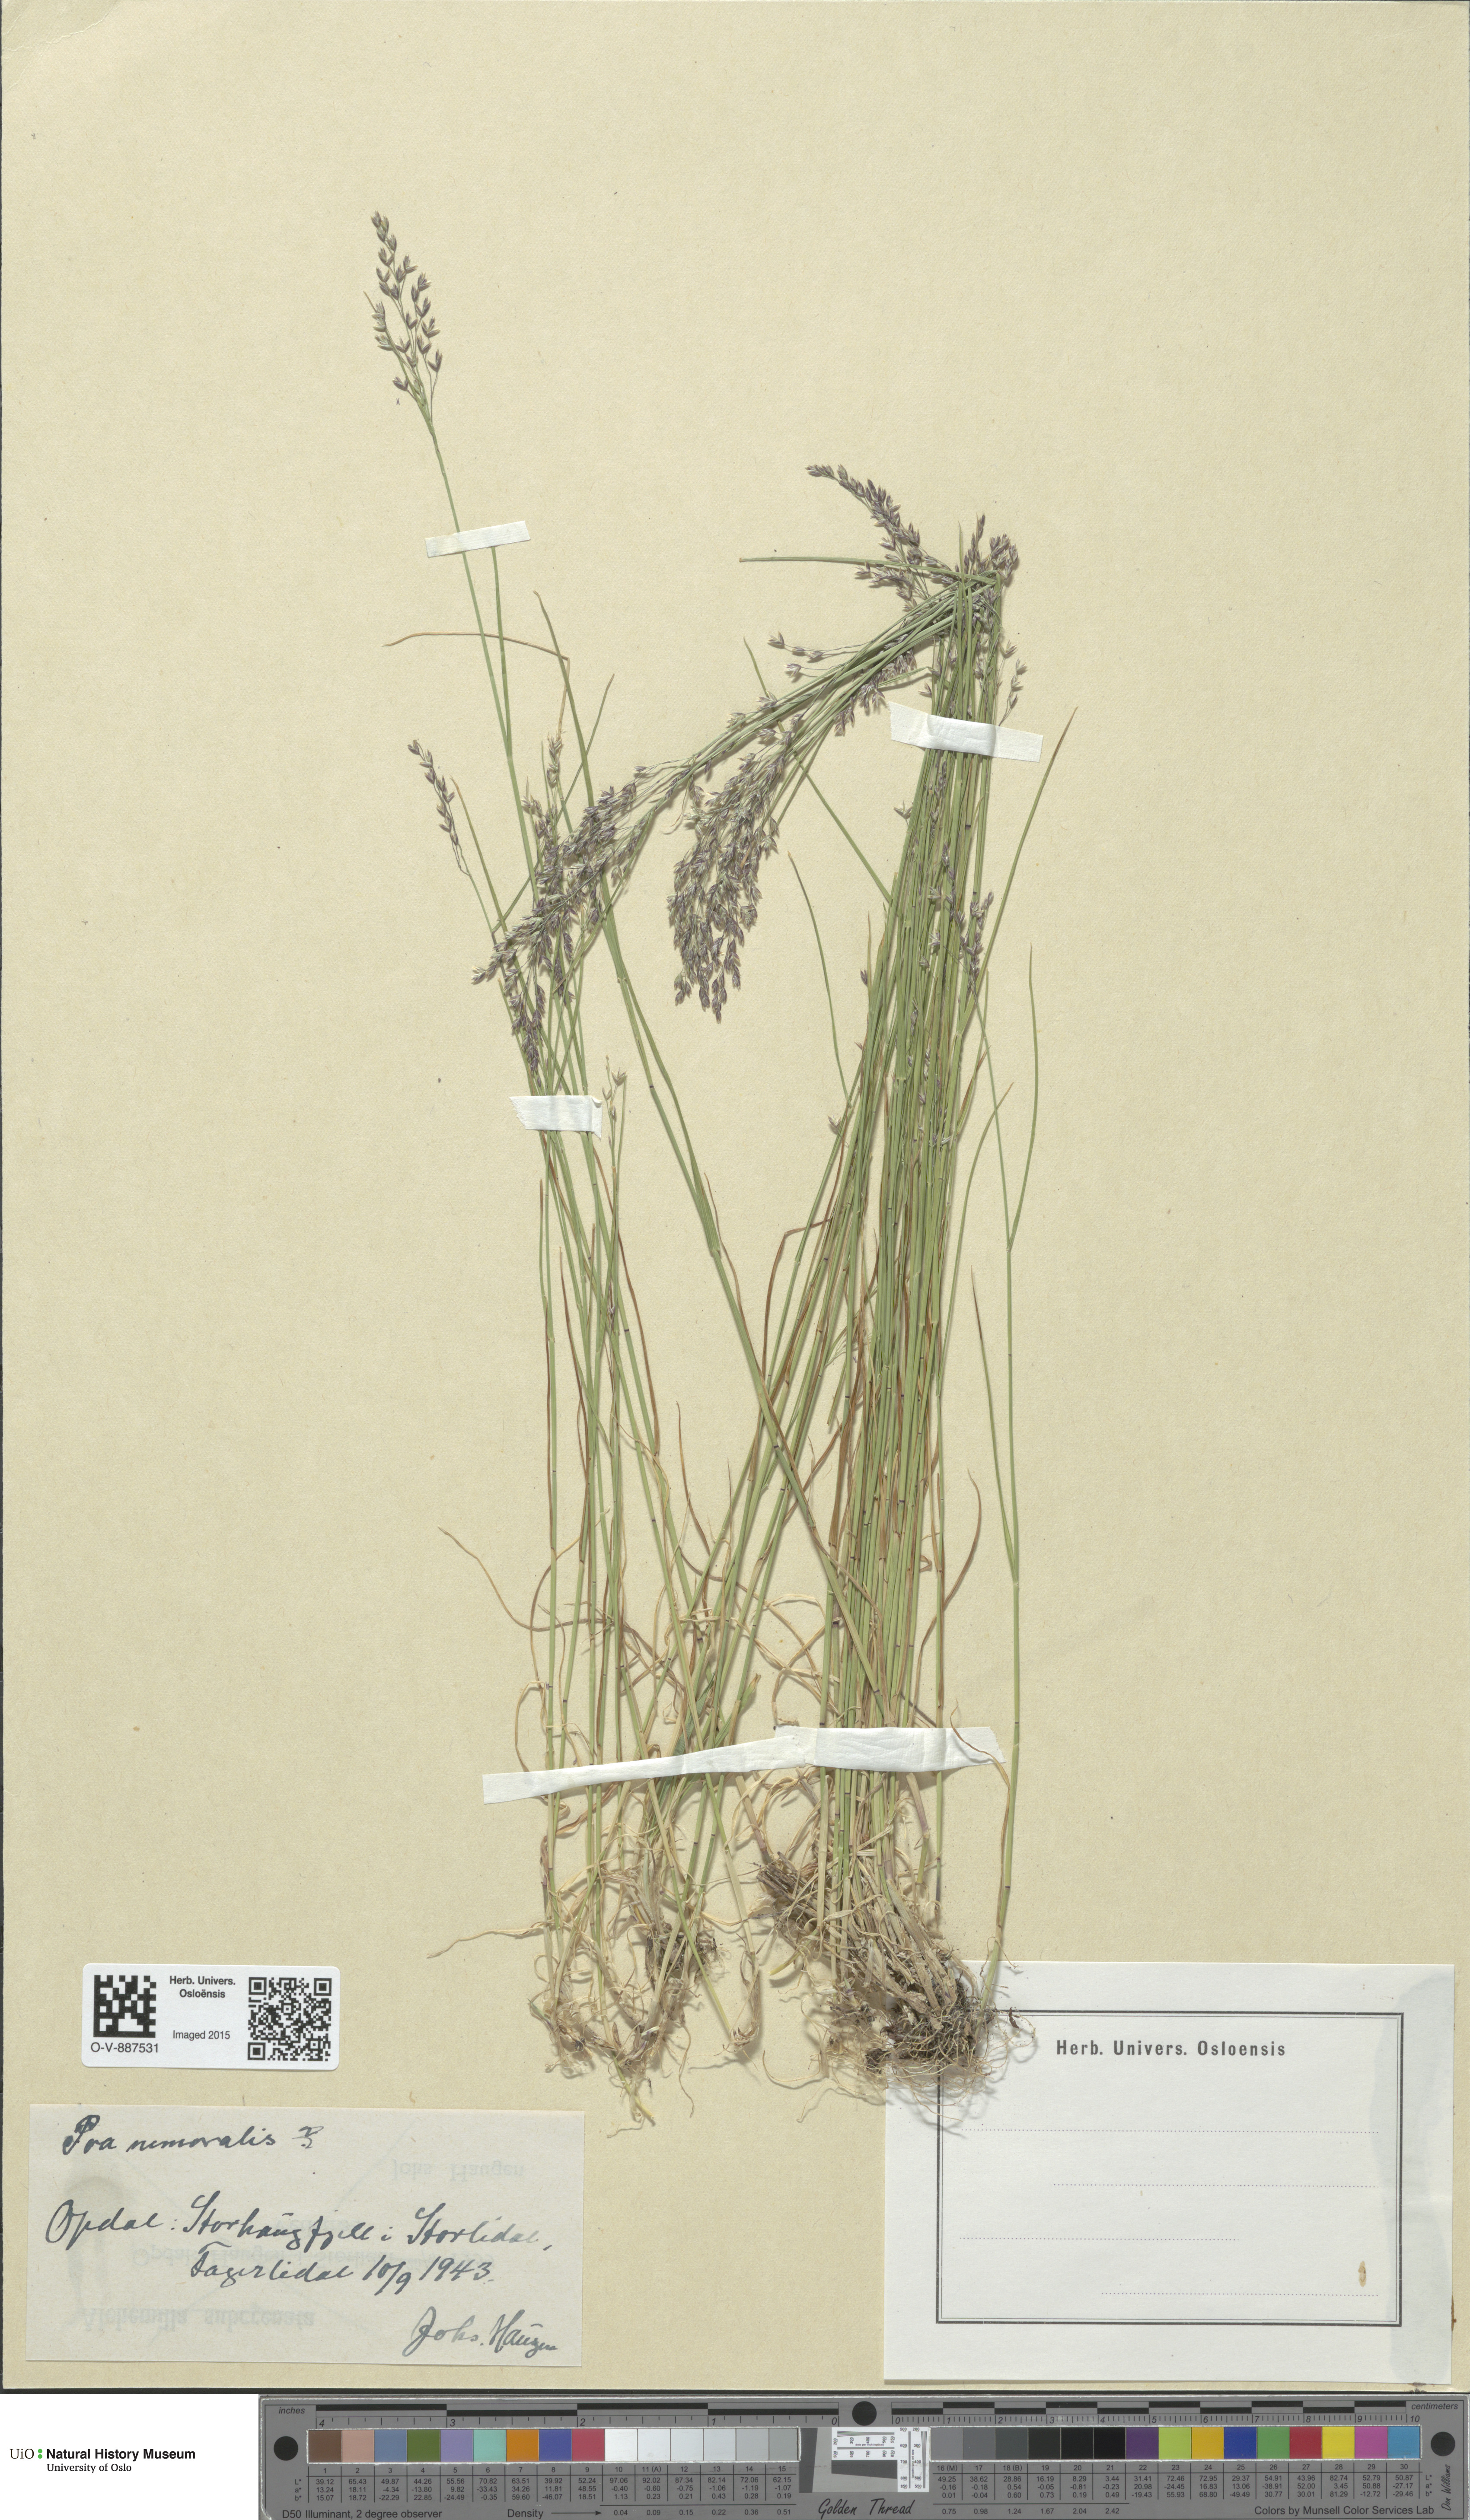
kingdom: Plantae
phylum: Tracheophyta
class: Liliopsida
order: Poales
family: Poaceae
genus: Poa
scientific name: Poa nemoralis
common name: Wood bluegrass
